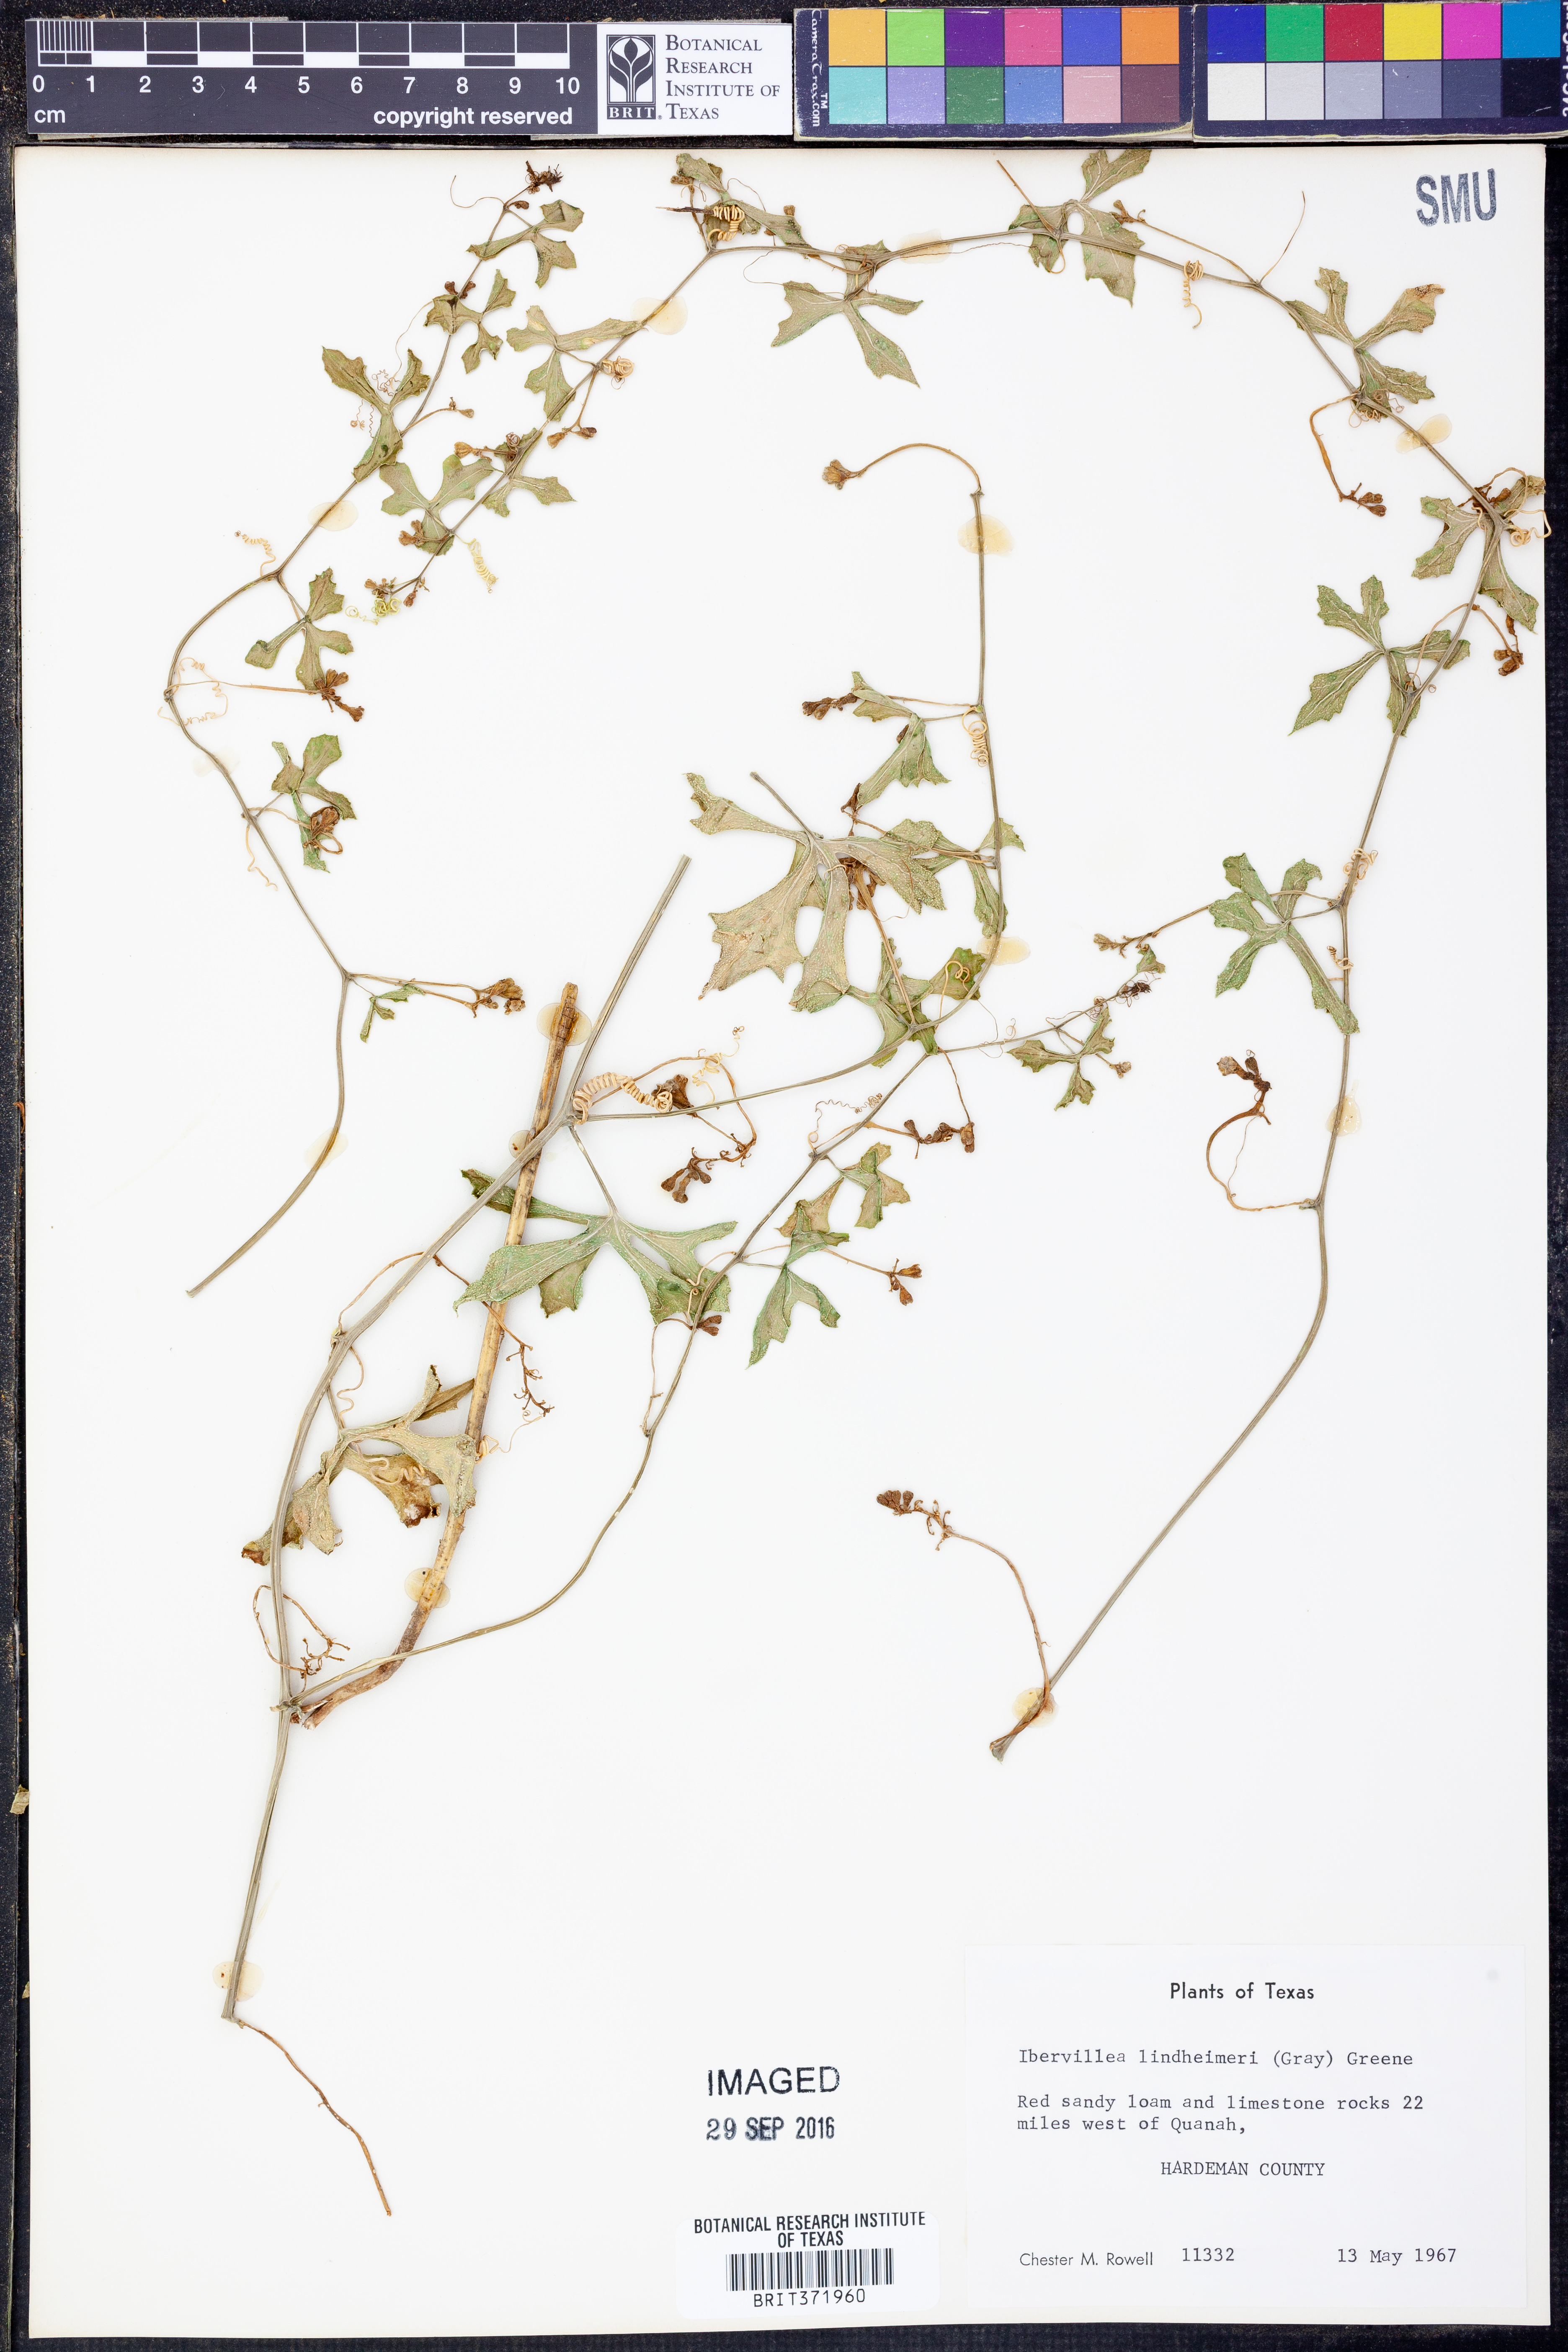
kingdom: Plantae
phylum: Tracheophyta
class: Magnoliopsida
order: Cucurbitales
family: Cucurbitaceae
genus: Ibervillea
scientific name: Ibervillea lindheimeri
